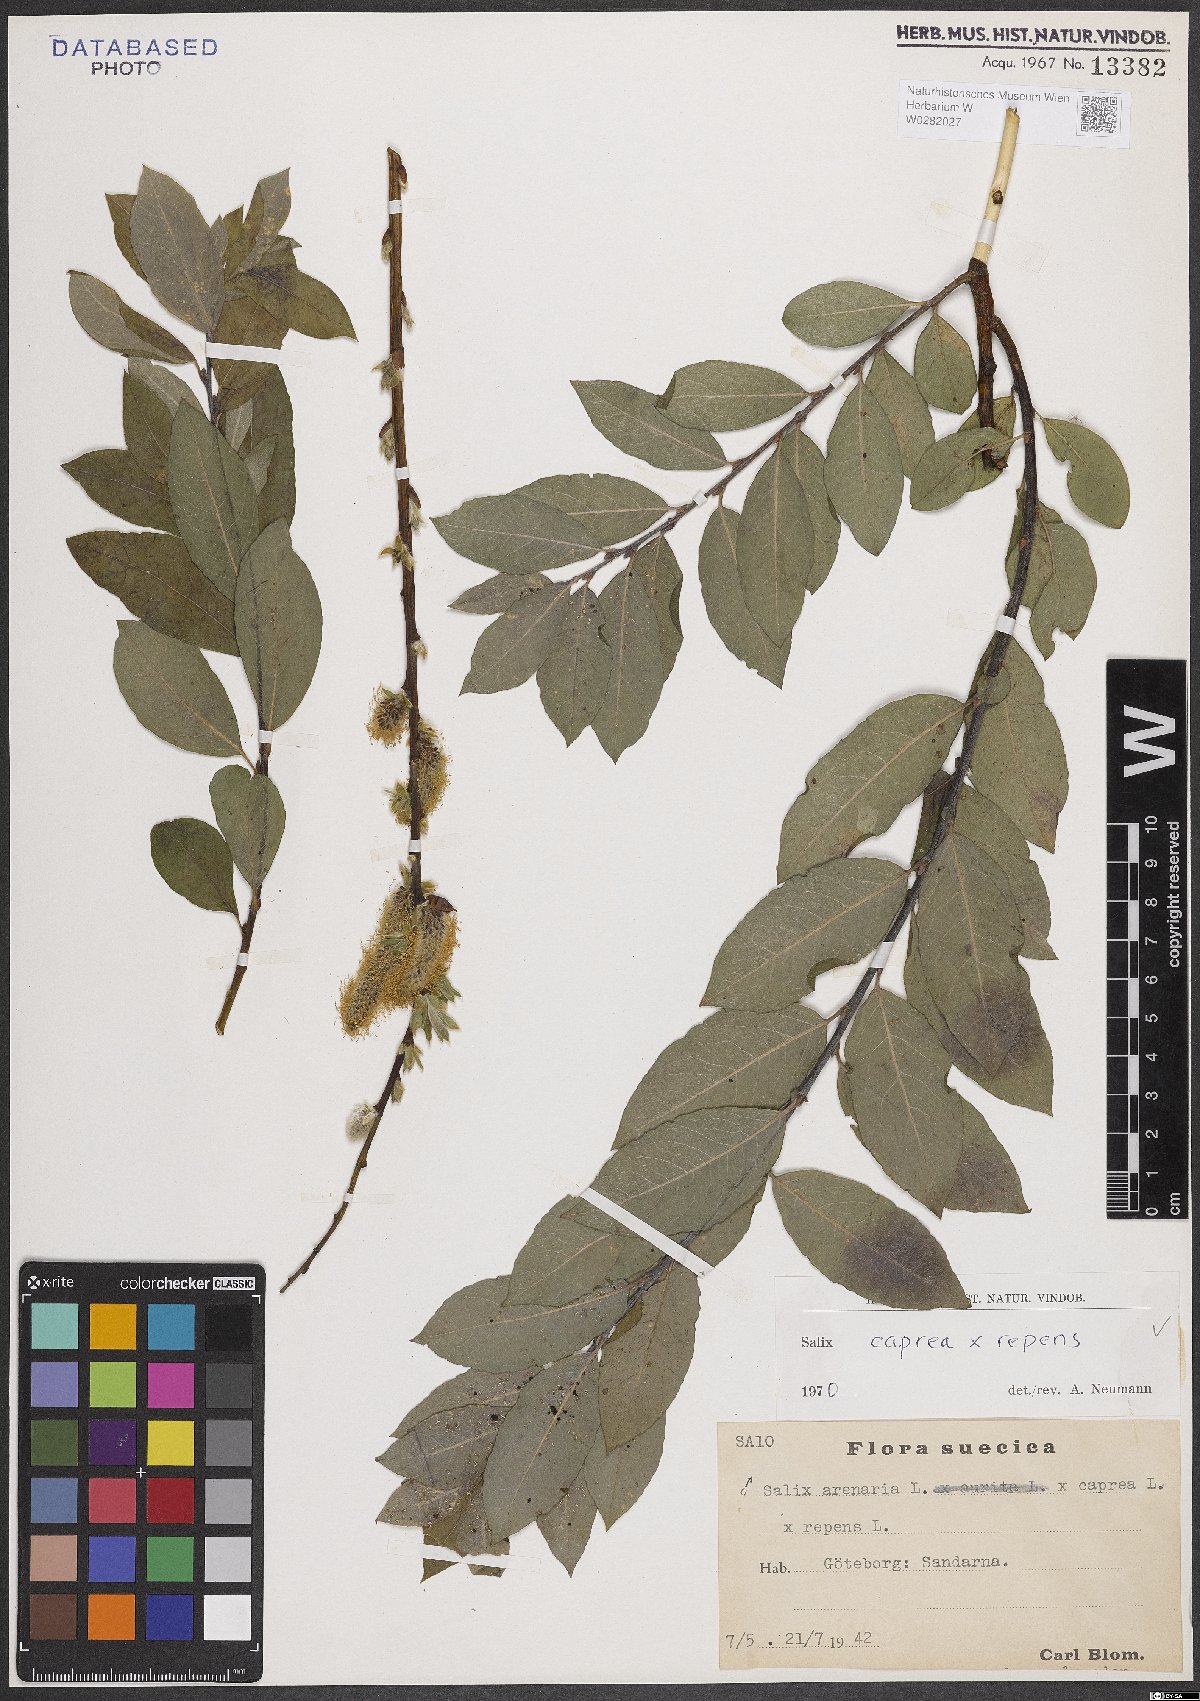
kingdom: Plantae
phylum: Tracheophyta
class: Magnoliopsida
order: Malpighiales
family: Salicaceae
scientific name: Salicaceae
